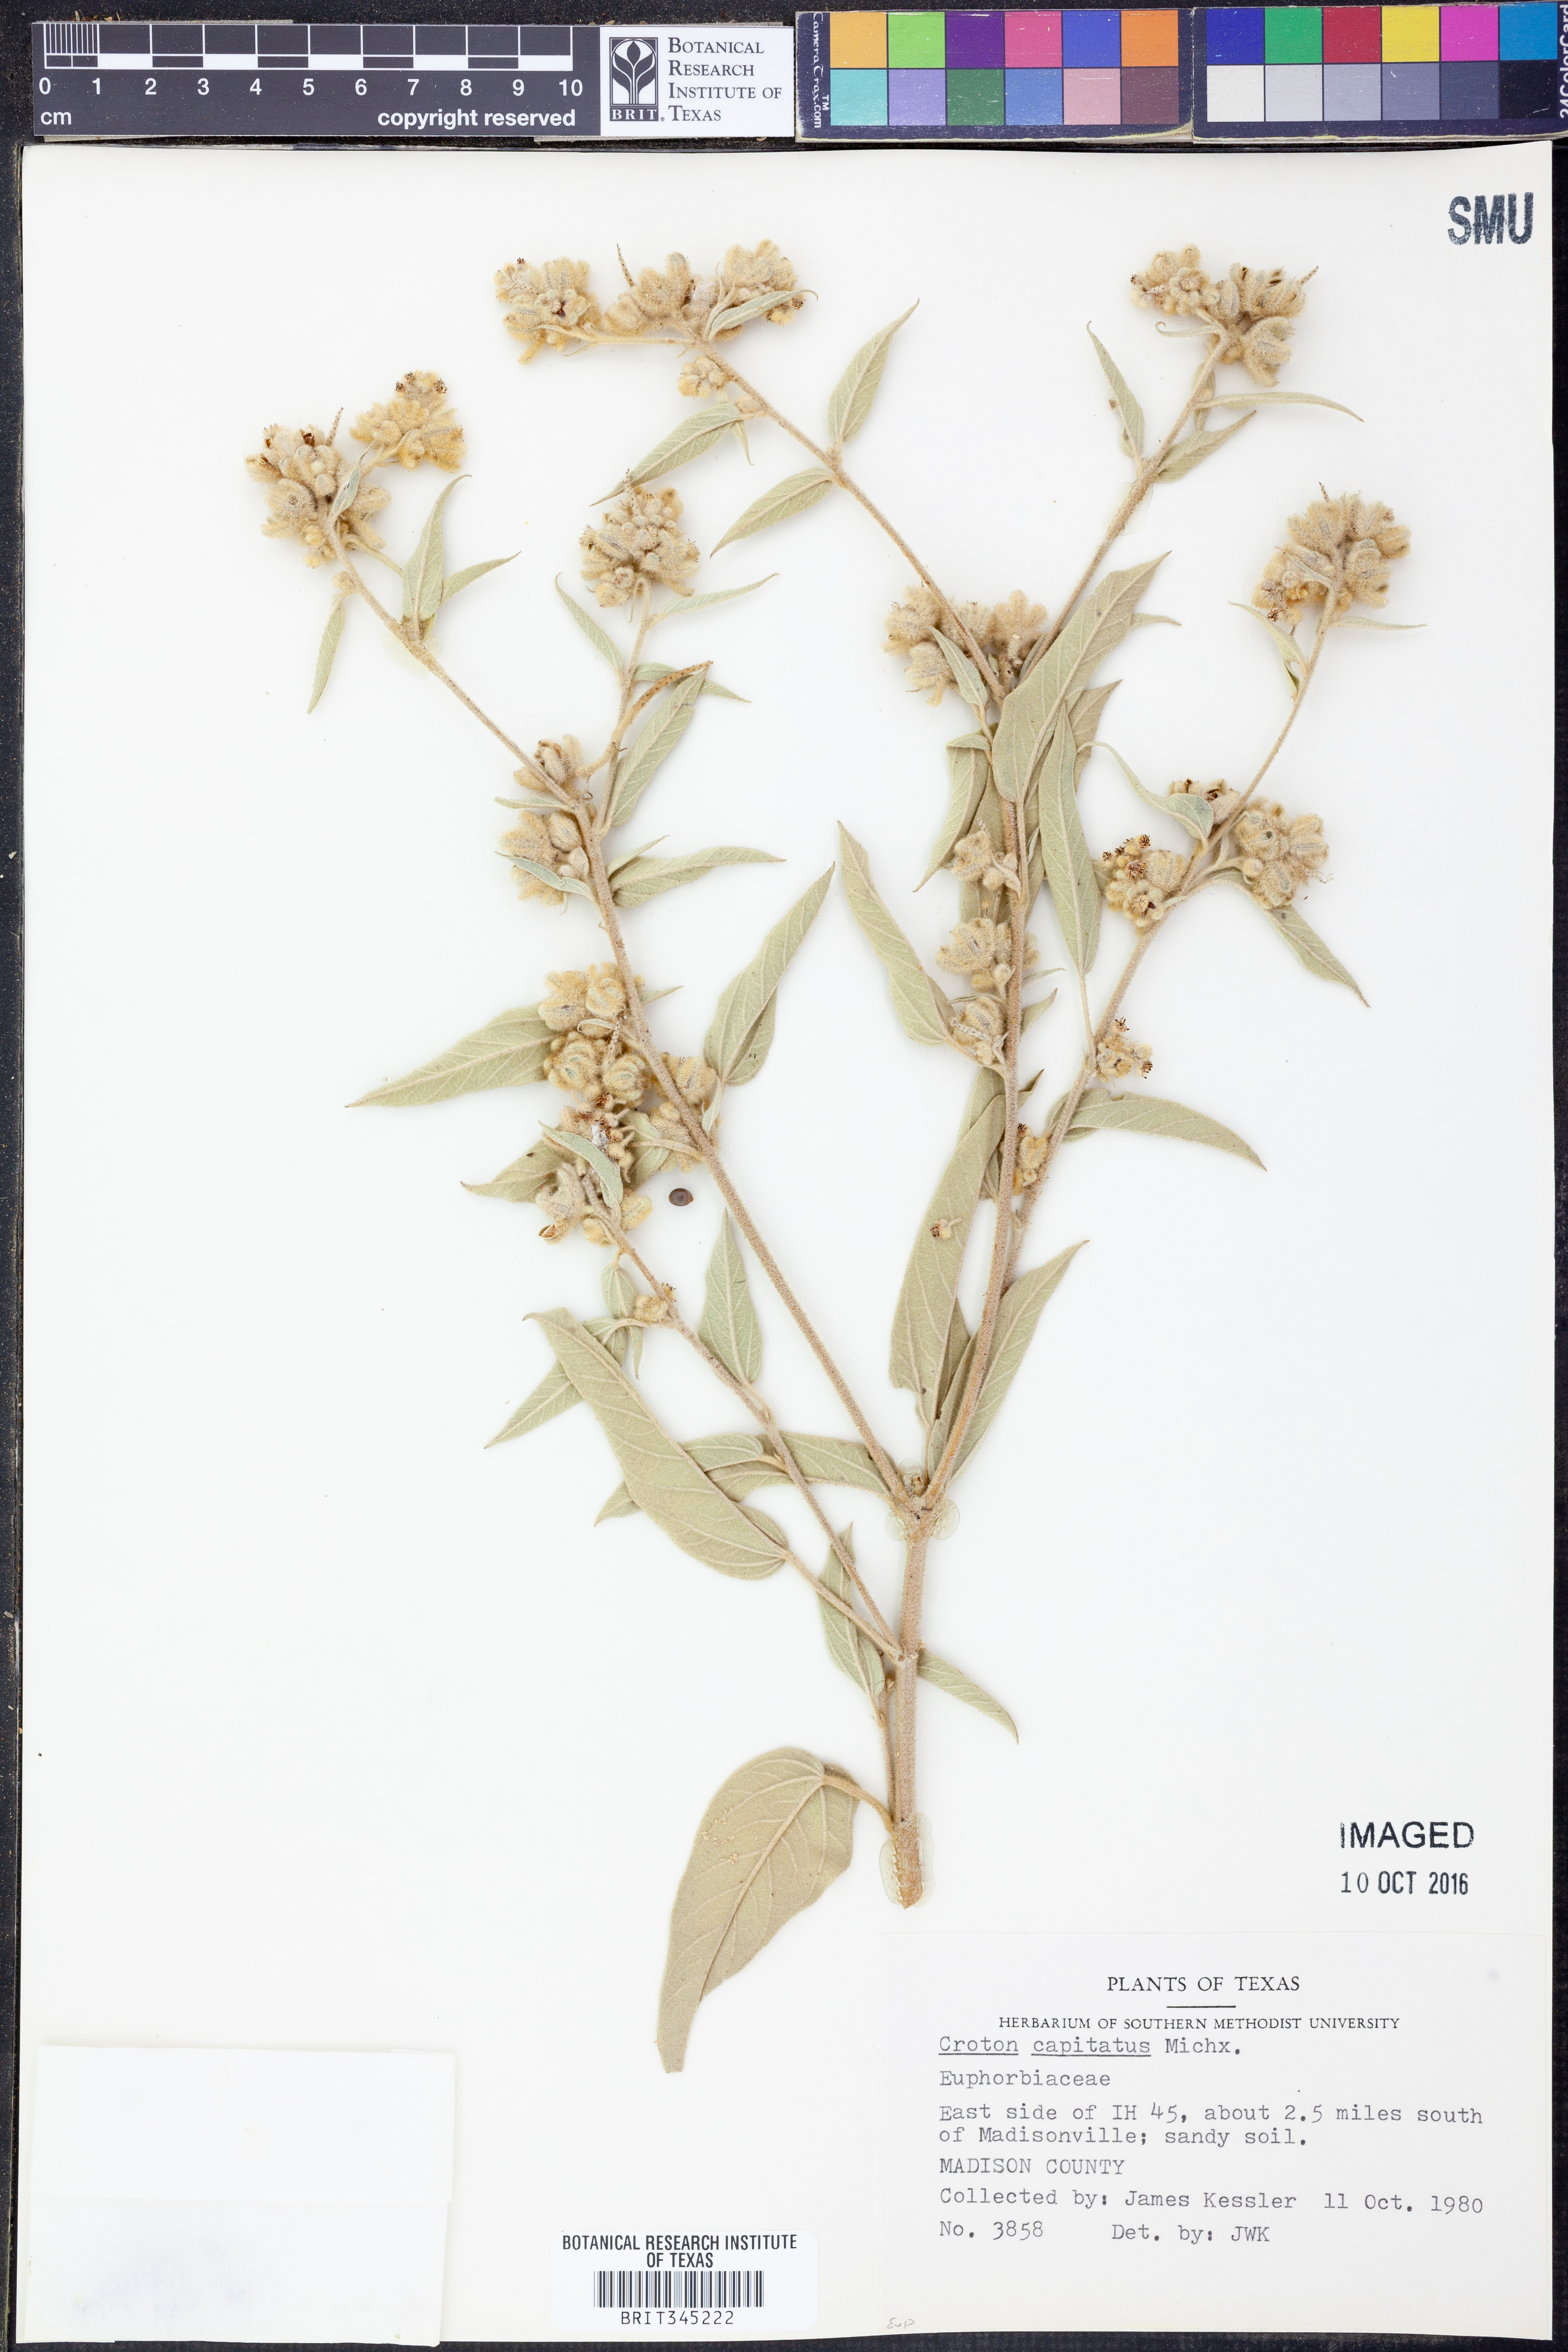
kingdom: Plantae
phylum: Tracheophyta
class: Magnoliopsida
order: Malpighiales
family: Euphorbiaceae
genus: Croton
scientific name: Croton capitatus
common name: Woolly croton
